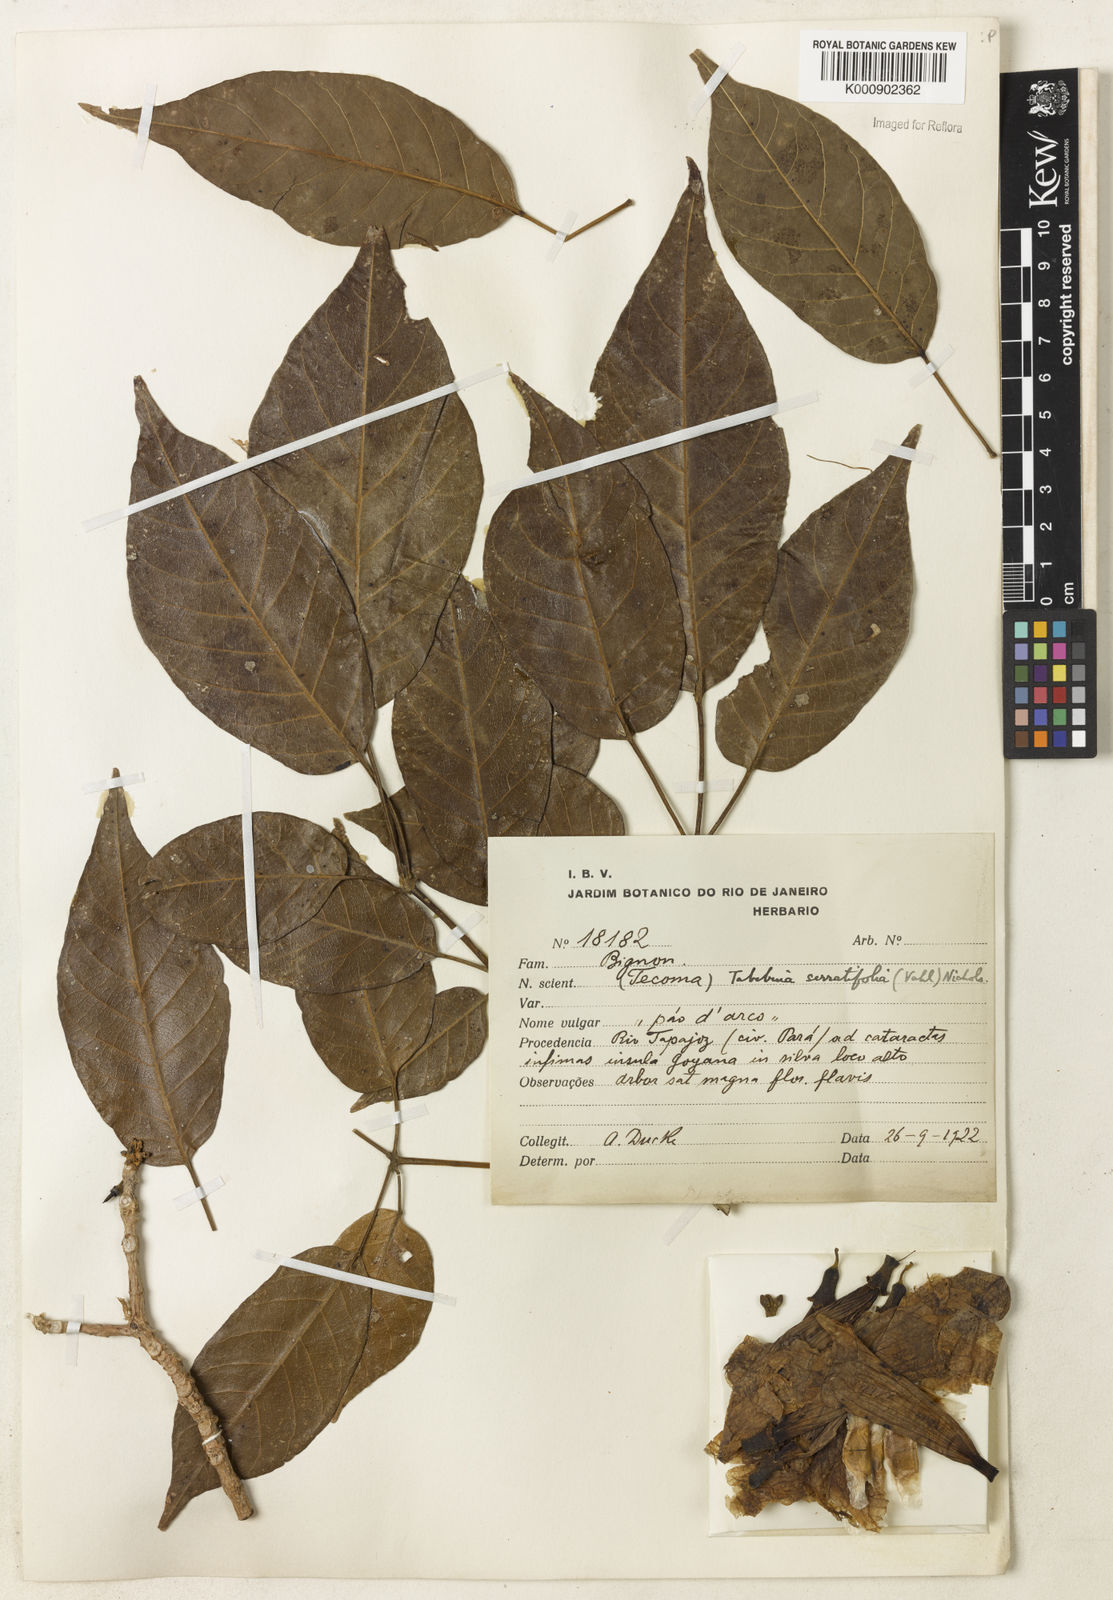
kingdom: Plantae
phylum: Tracheophyta
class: Magnoliopsida
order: Lamiales
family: Bignoniaceae
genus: Handroanthus
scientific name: Handroanthus serratifolius
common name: Yellow ipe
